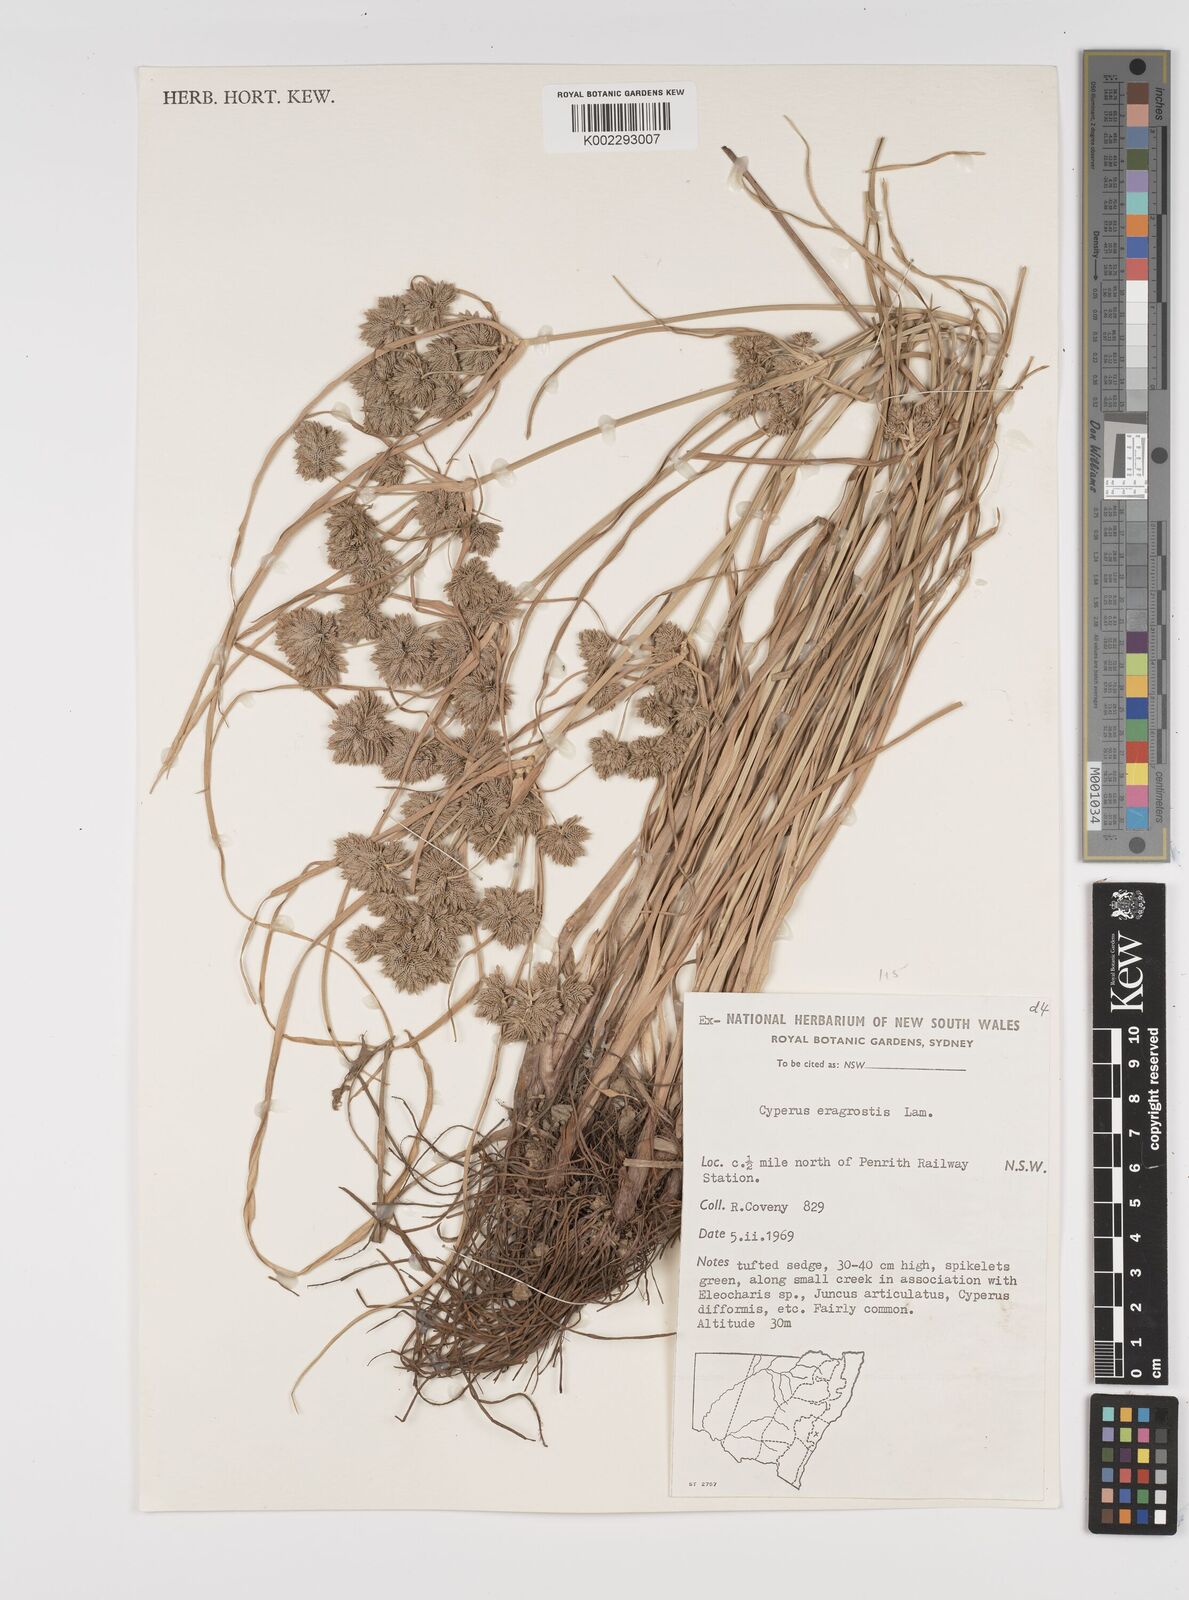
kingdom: Plantae
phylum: Tracheophyta
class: Liliopsida
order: Poales
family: Cyperaceae
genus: Cyperus
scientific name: Cyperus eragrostis
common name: Tall flatsedge
